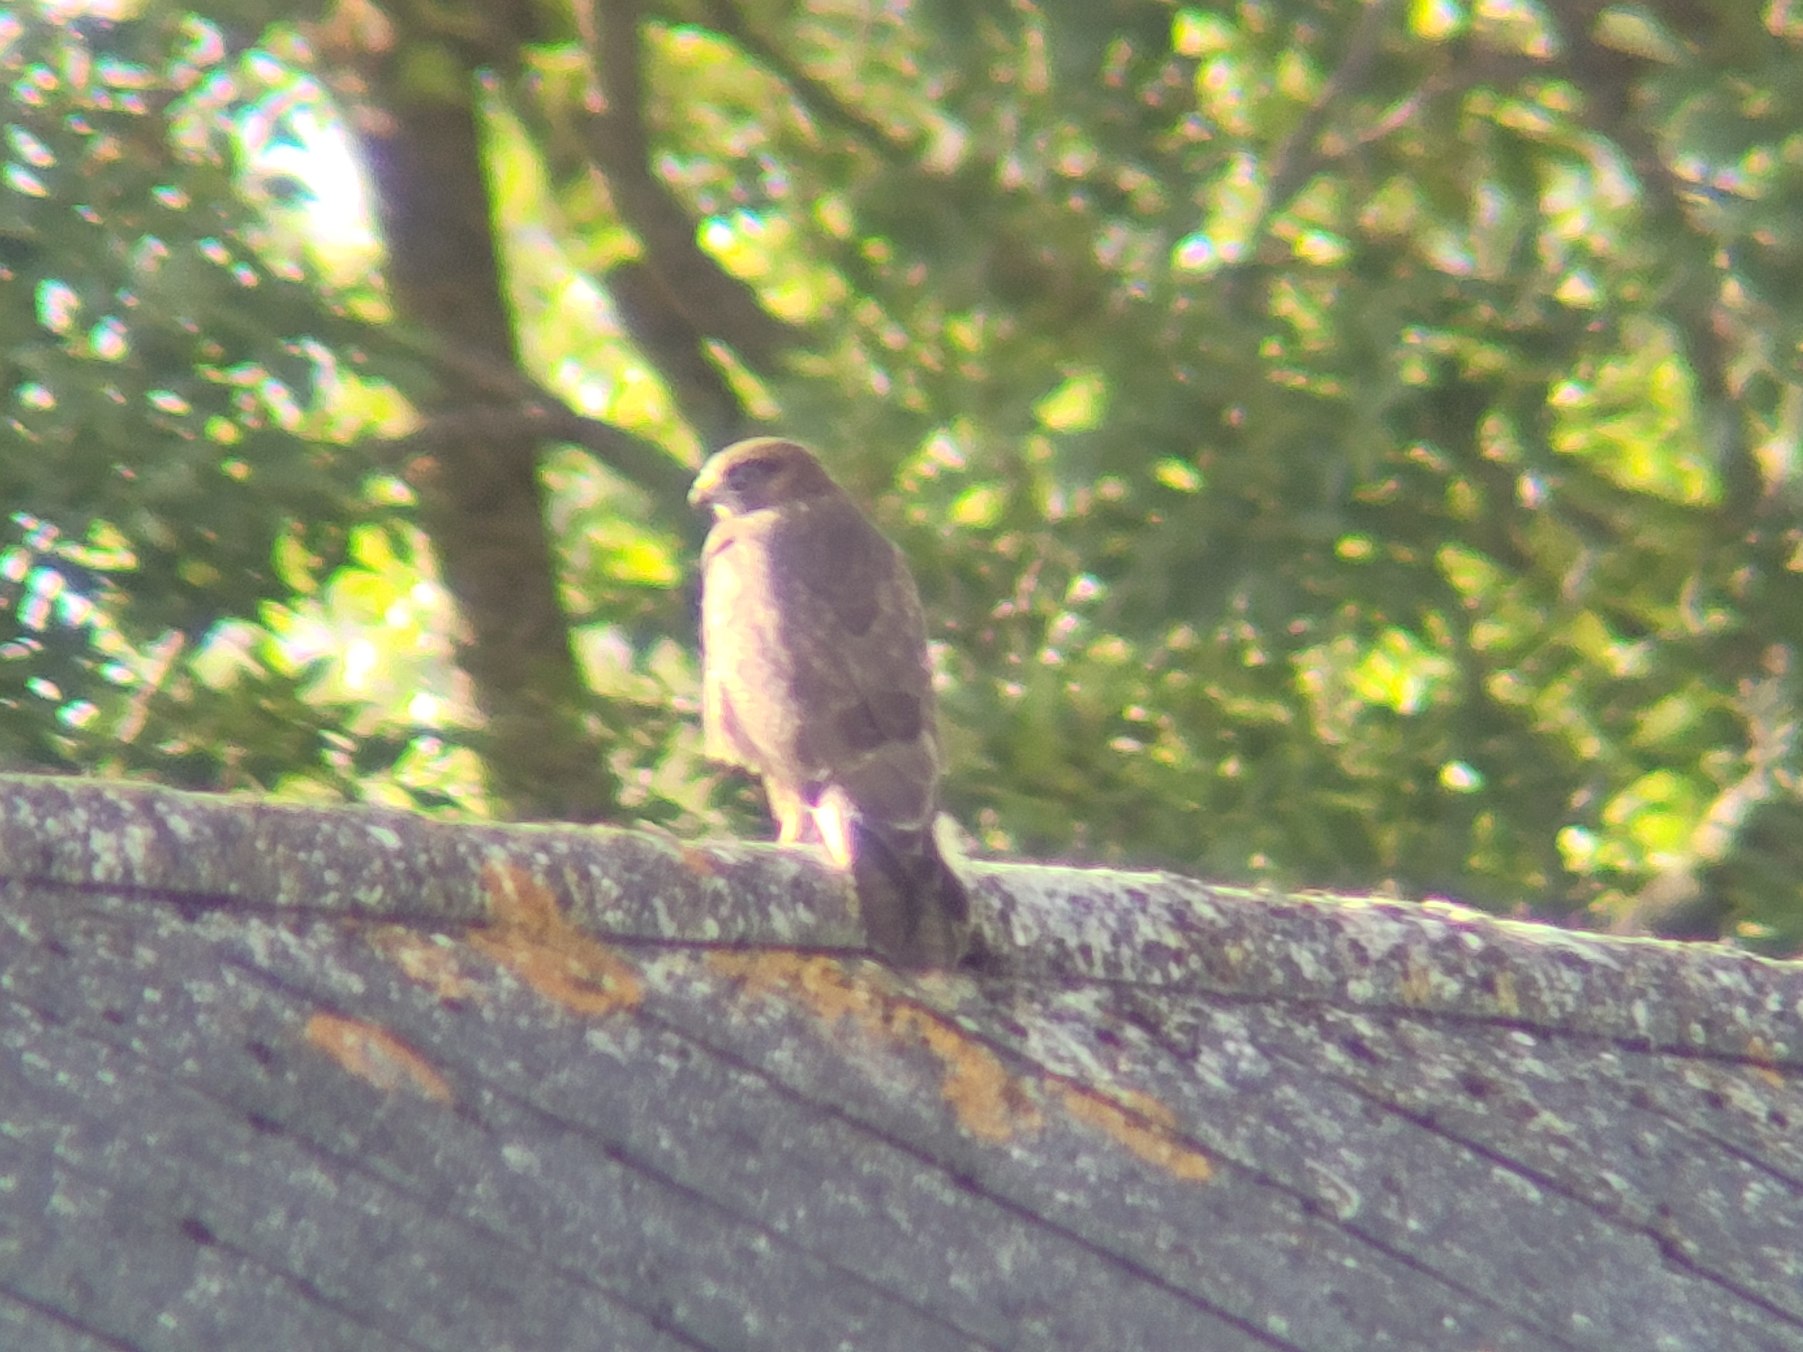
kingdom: Animalia
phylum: Chordata
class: Aves
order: Accipitriformes
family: Accipitridae
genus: Buteo
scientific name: Buteo buteo
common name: Musvåge
